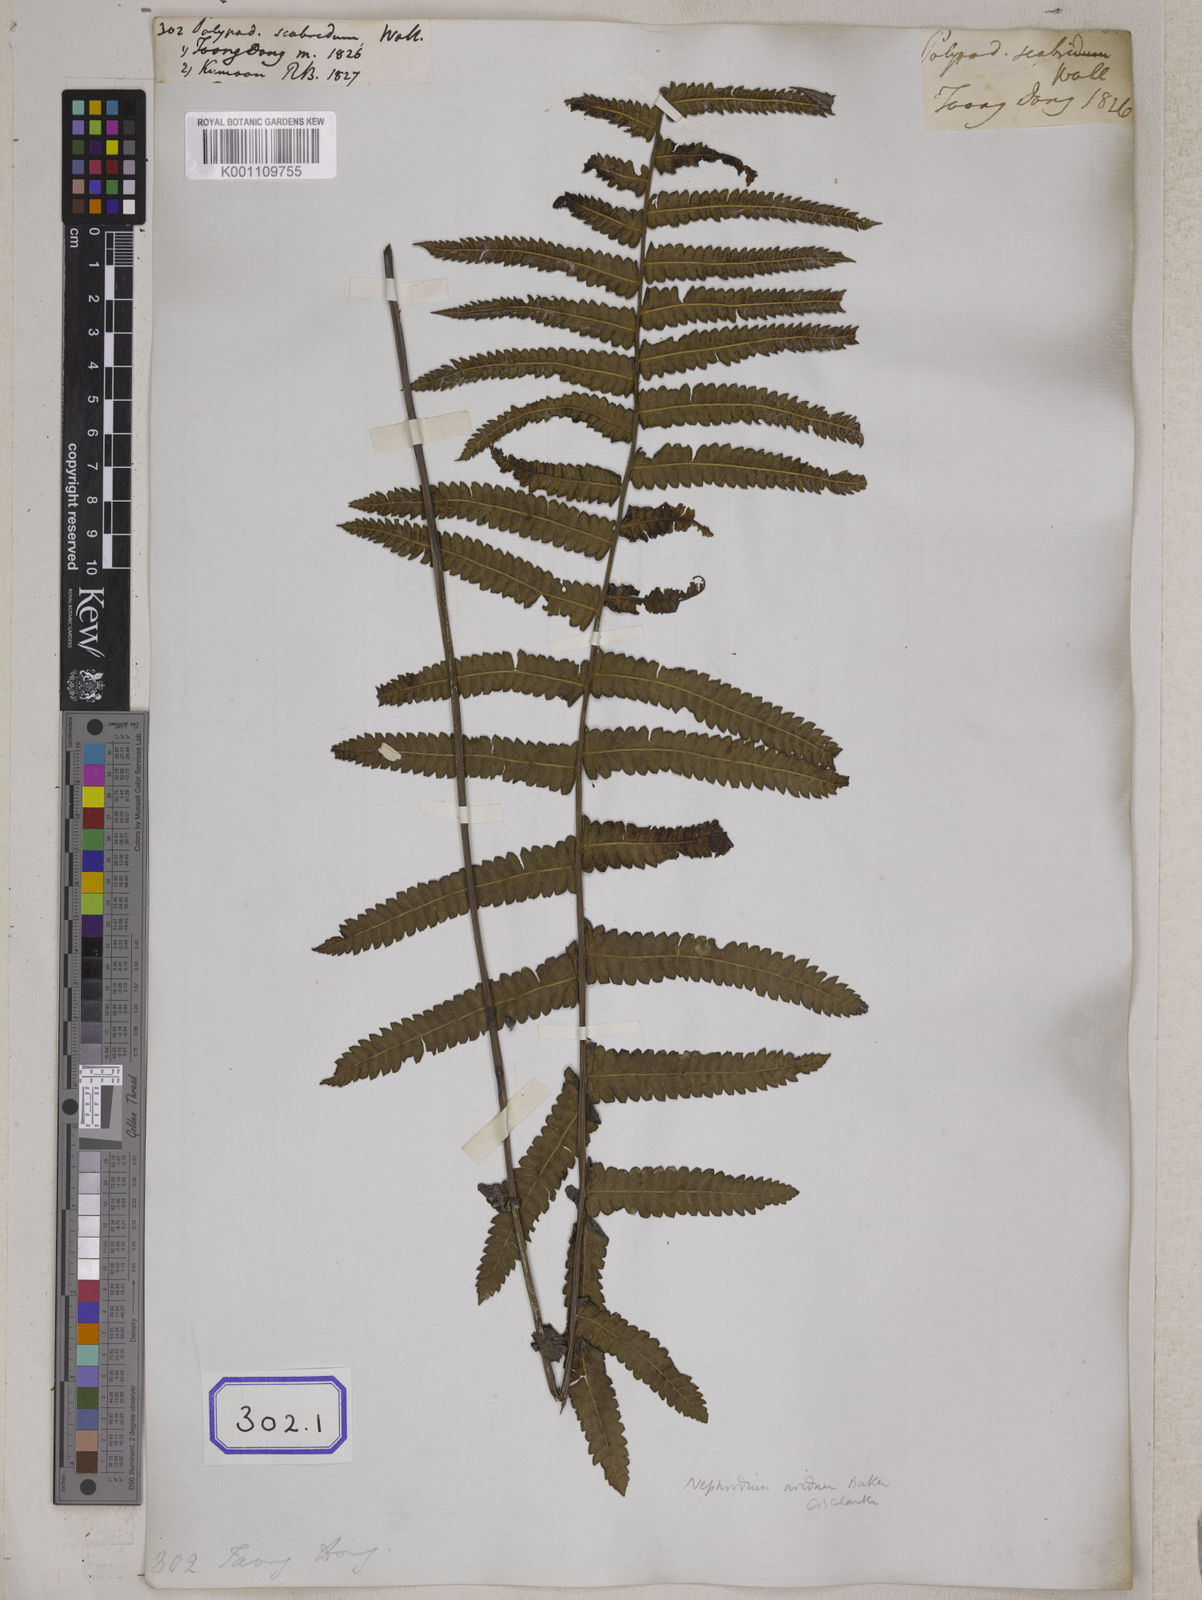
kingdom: Plantae
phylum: Tracheophyta
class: Polypodiopsida
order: Polypodiales
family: Thelypteridaceae
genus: Christella
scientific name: Christella arida
